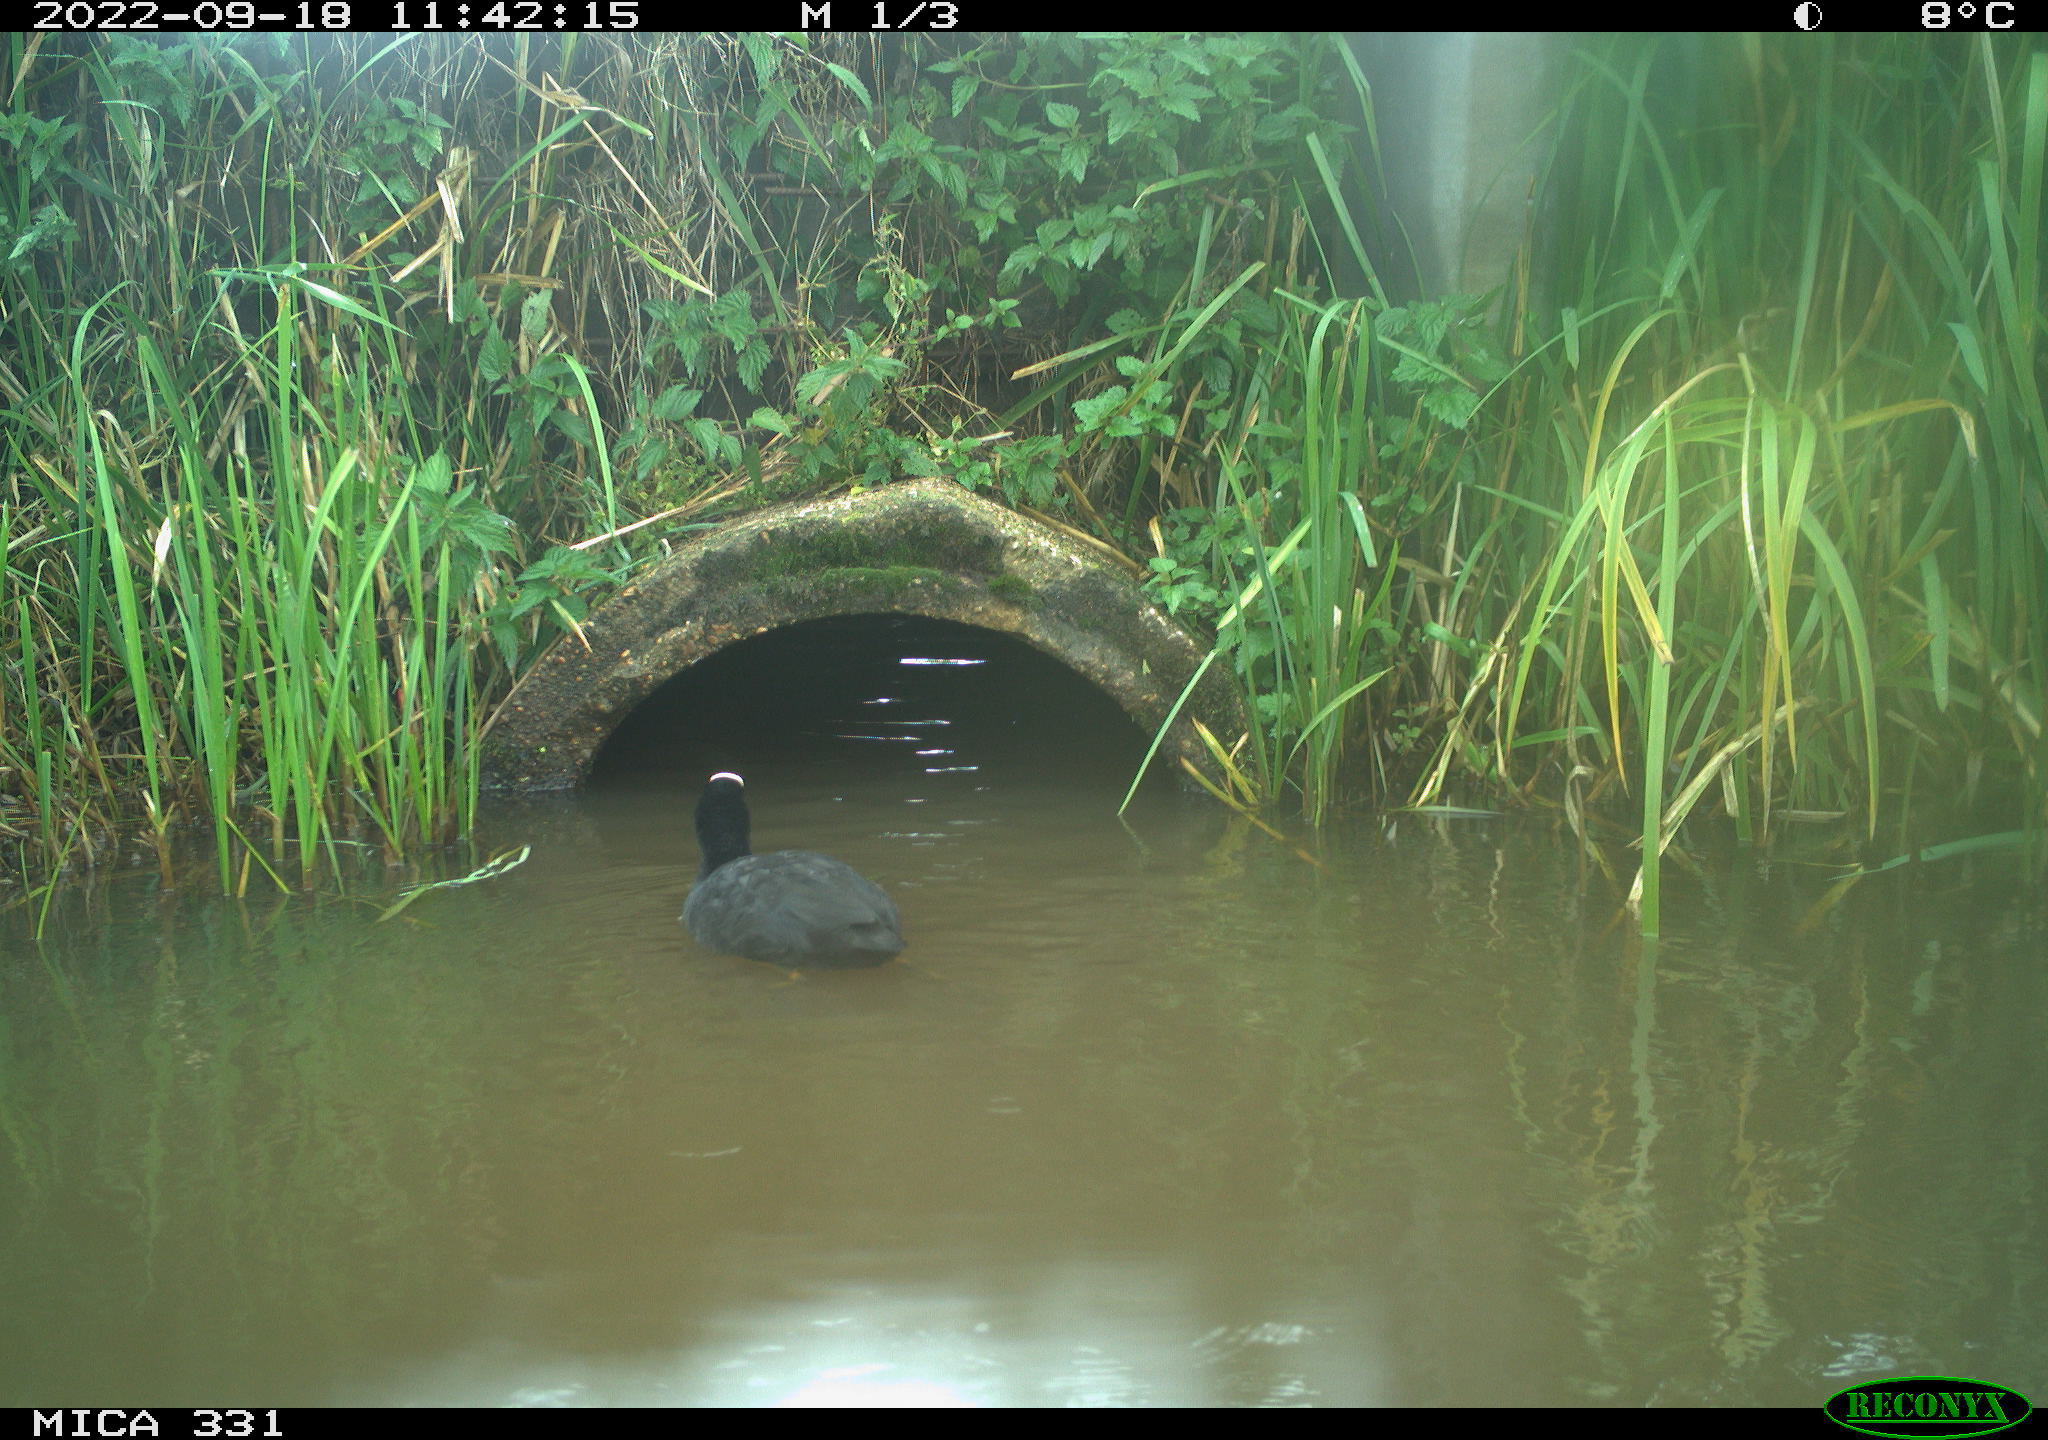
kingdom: Animalia
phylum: Chordata
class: Aves
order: Gruiformes
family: Rallidae
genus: Fulica
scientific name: Fulica atra
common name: Eurasian coot
